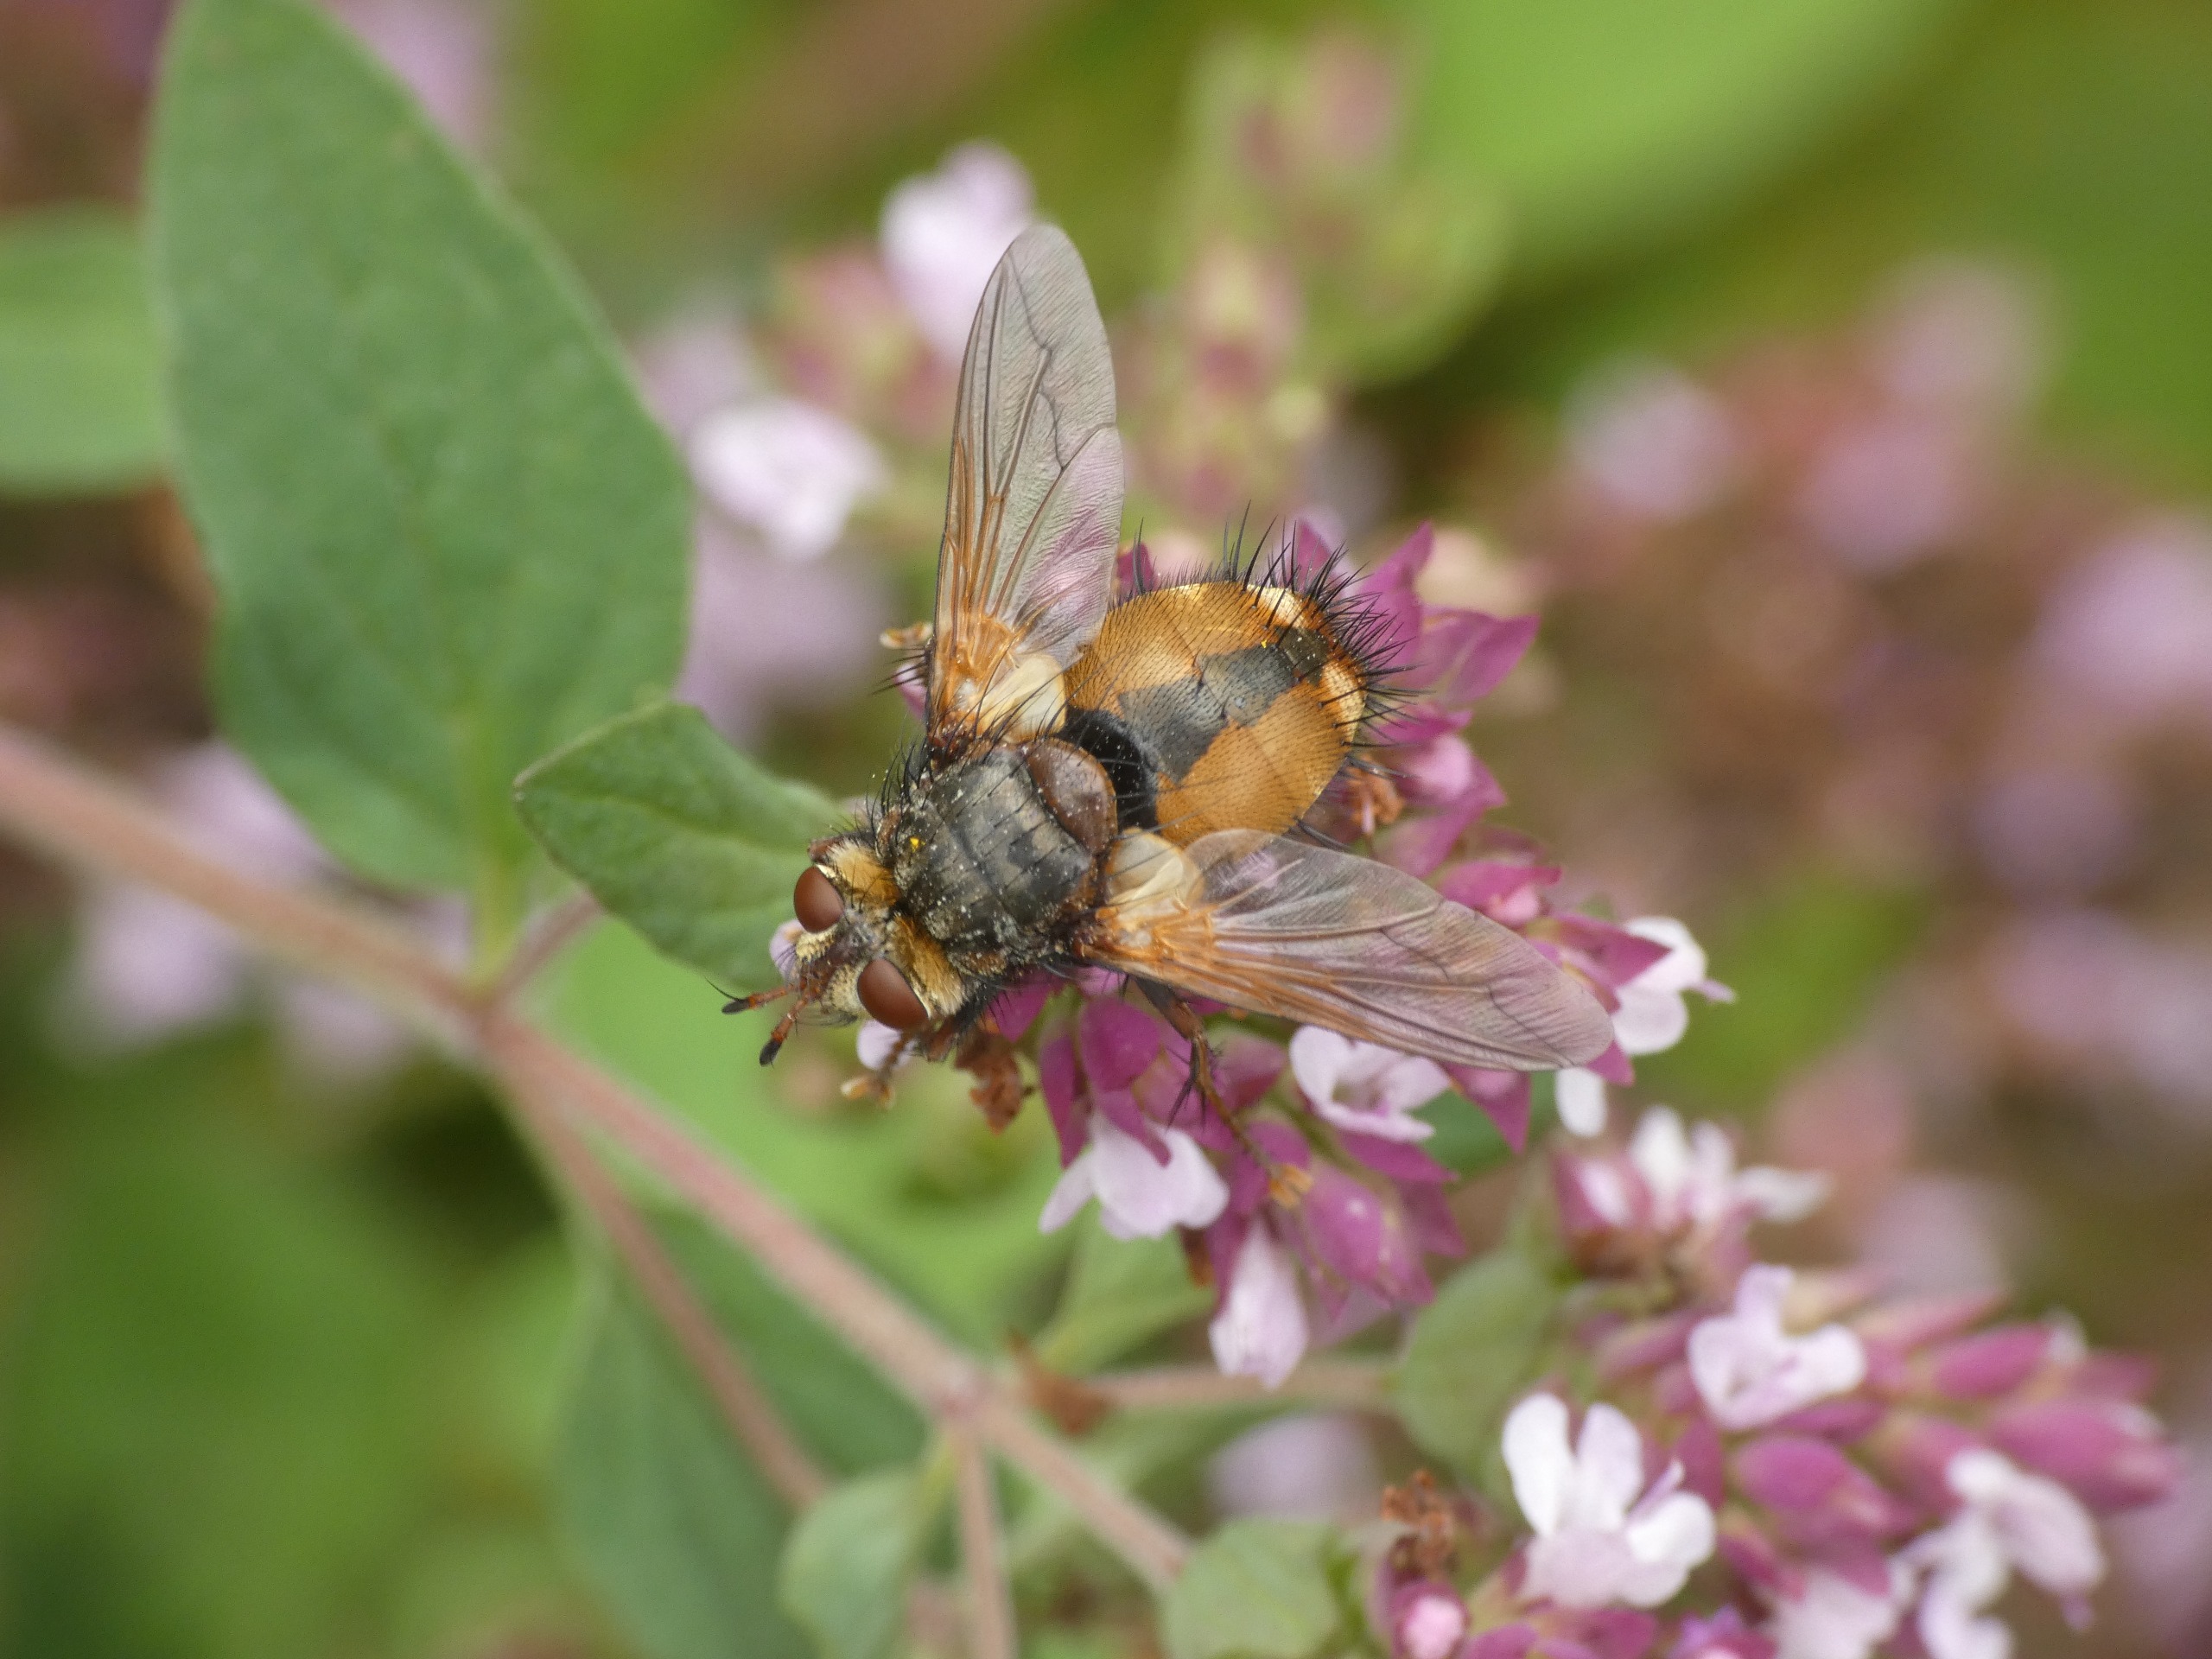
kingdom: Animalia
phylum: Arthropoda
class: Insecta
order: Diptera
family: Tachinidae
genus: Tachina
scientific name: Tachina fera
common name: Mellemfluen oskar
